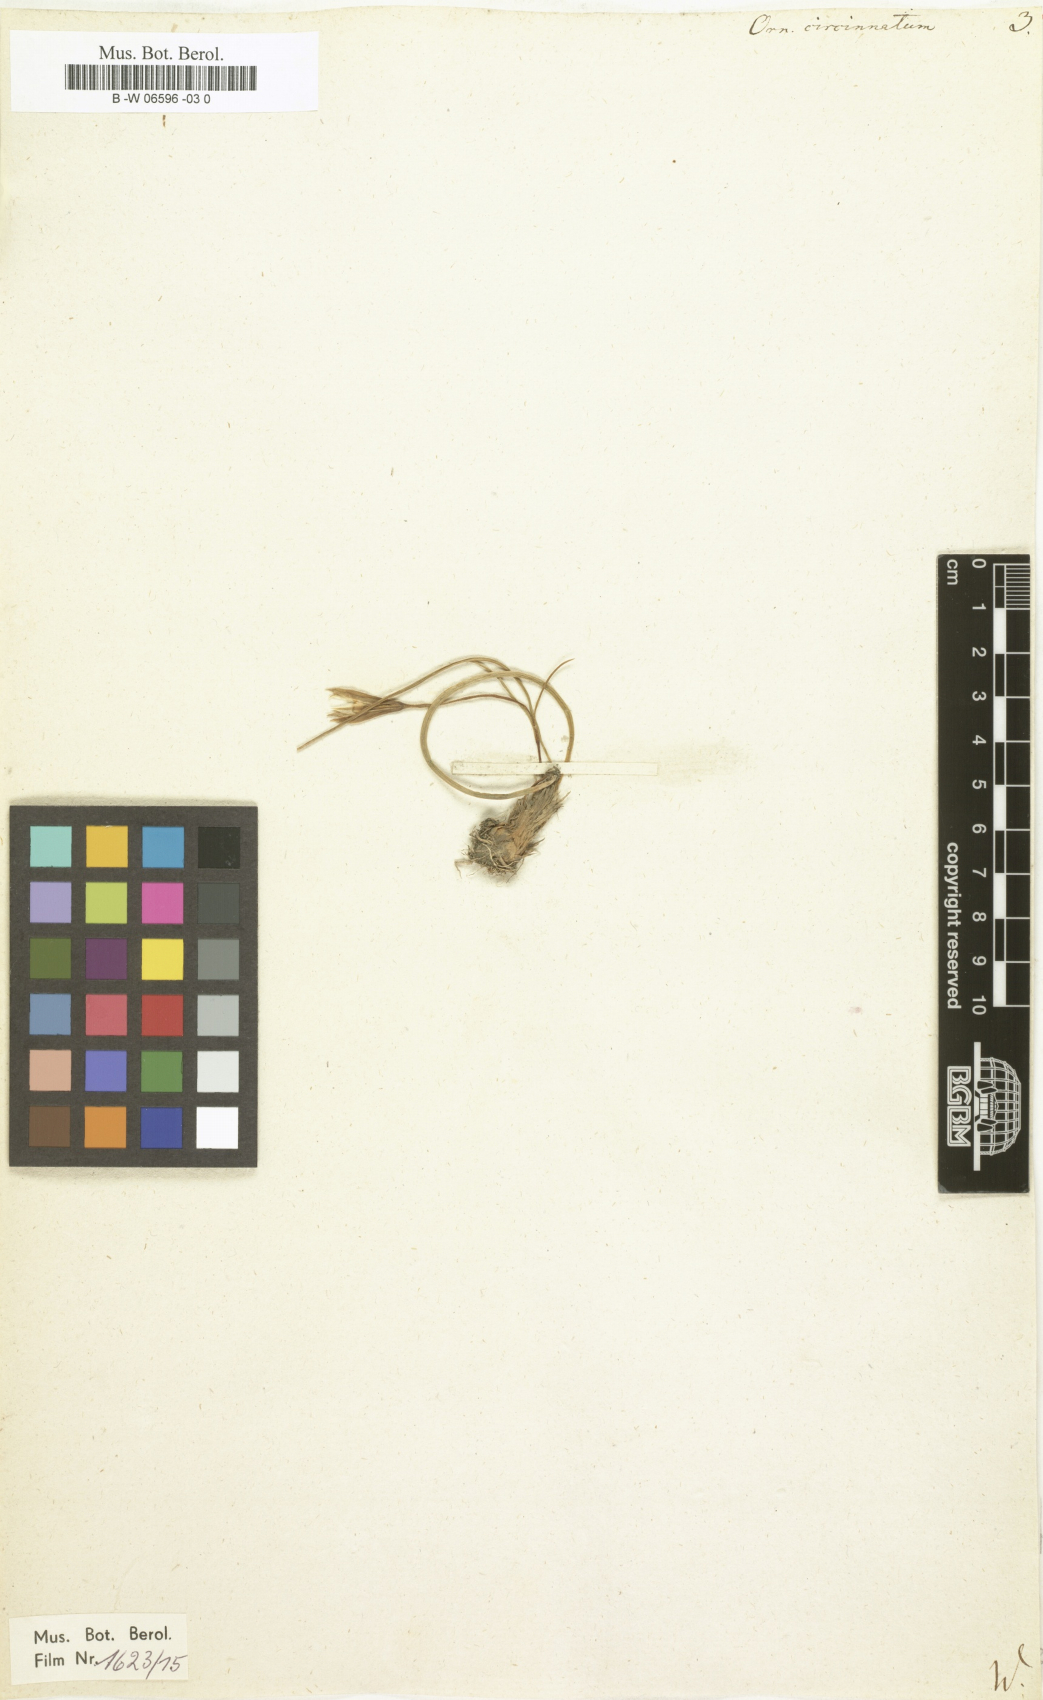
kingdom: Plantae
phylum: Tracheophyta
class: Liliopsida
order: Liliales
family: Liliaceae
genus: Gagea
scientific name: Gagea reticulata
